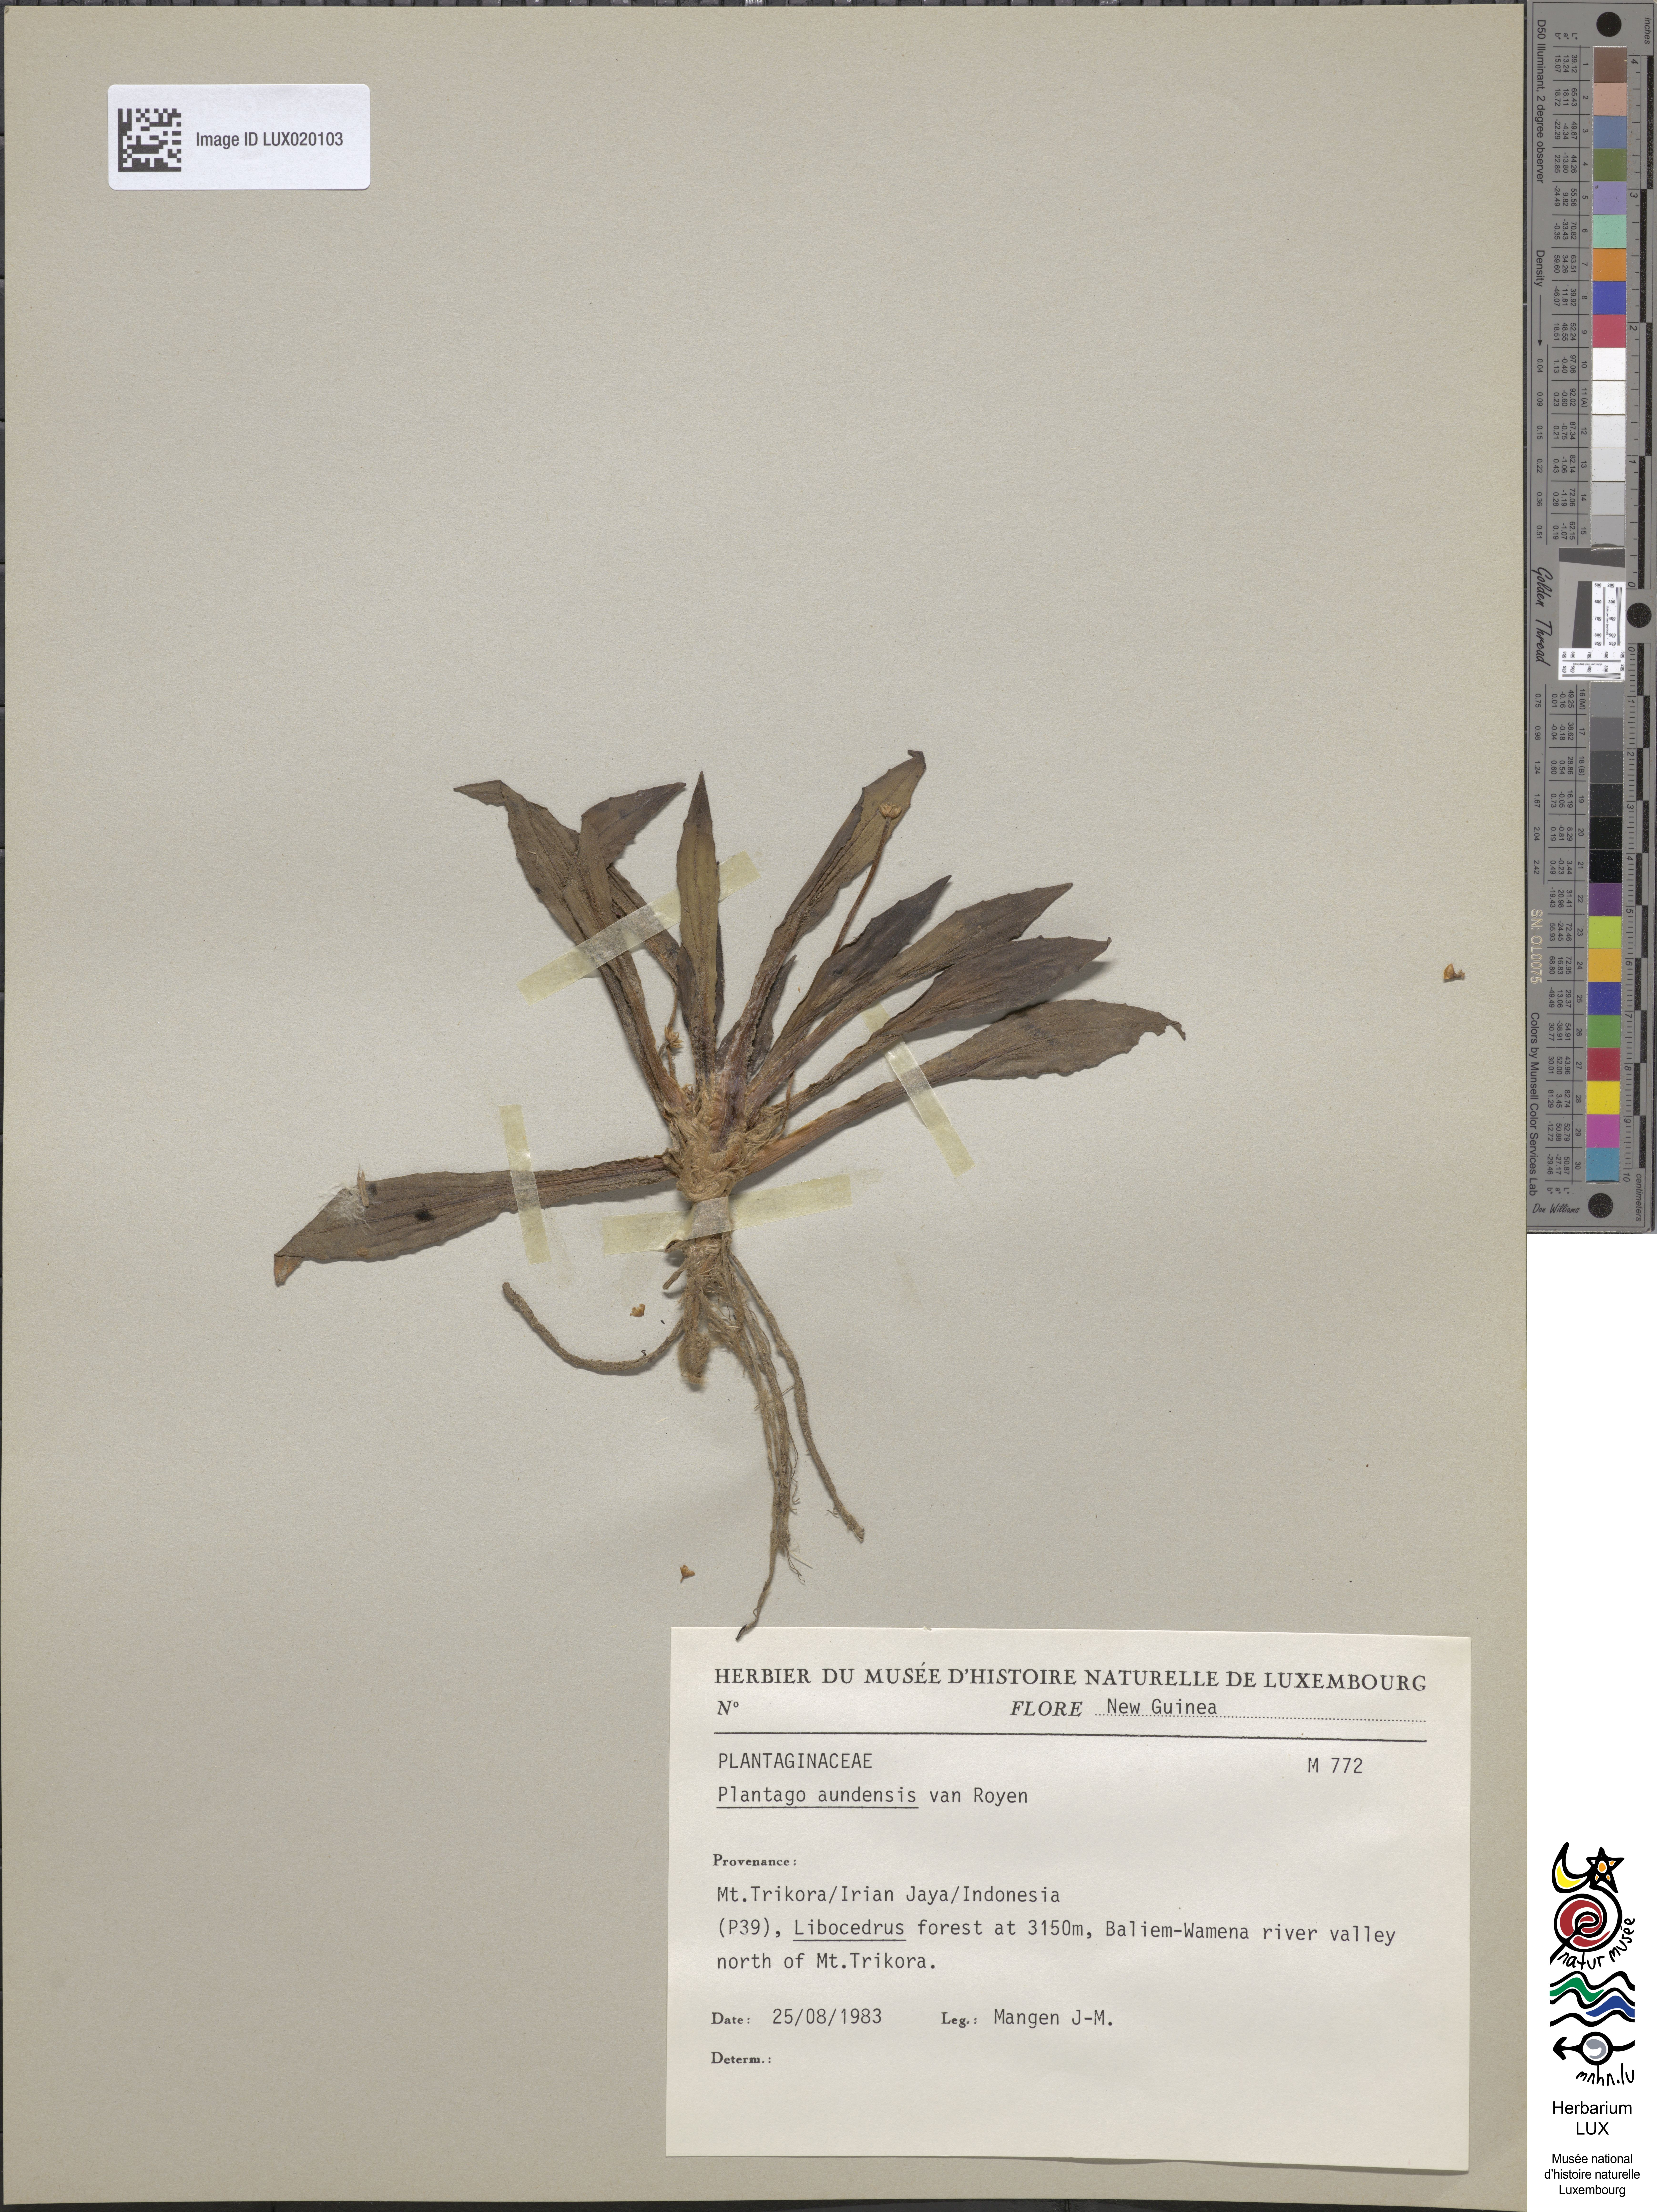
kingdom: Plantae
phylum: Tracheophyta
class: Magnoliopsida
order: Lamiales
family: Plantaginaceae
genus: Plantago
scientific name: Plantago aundensis
